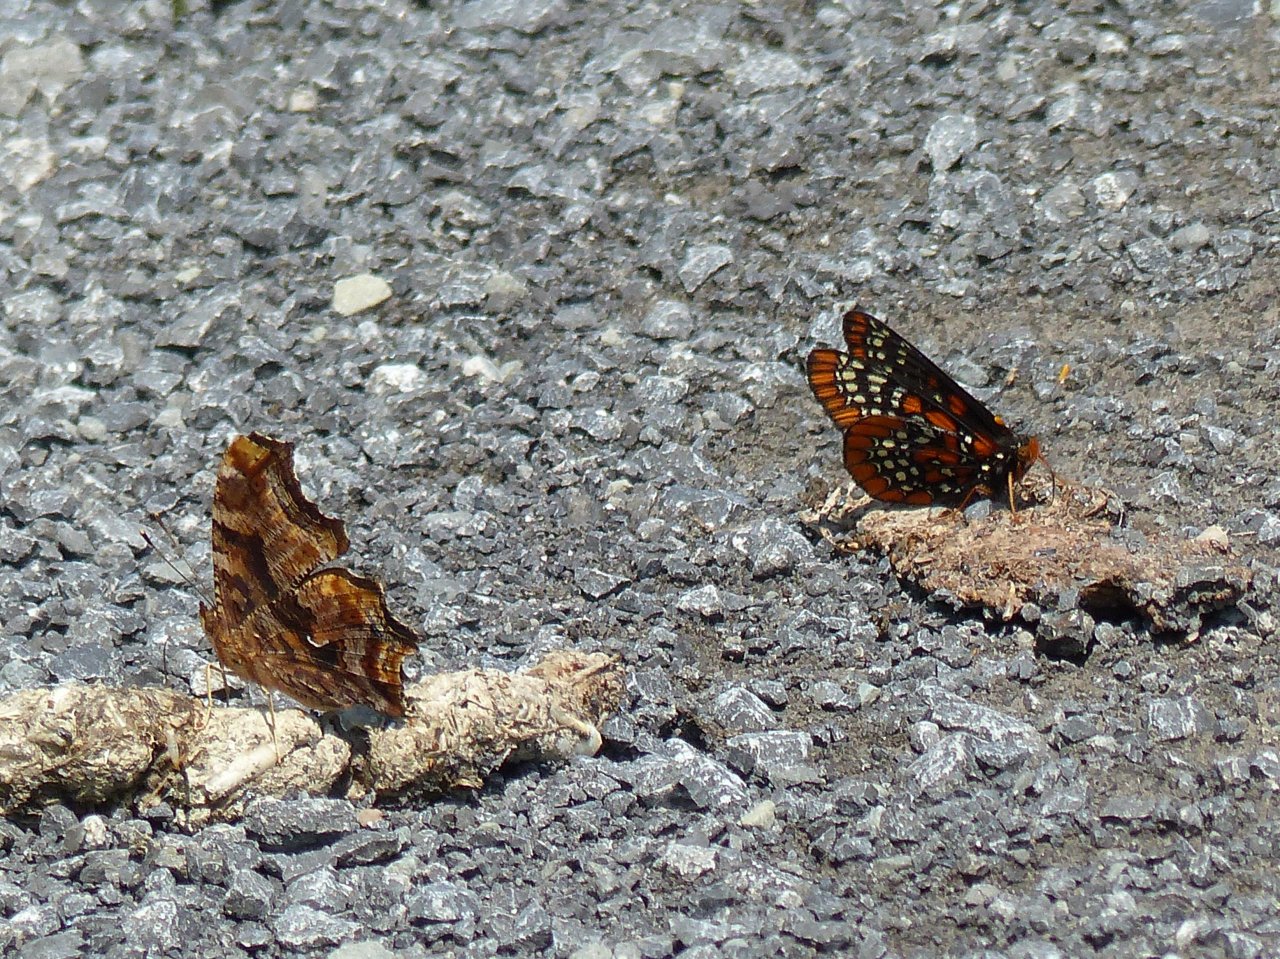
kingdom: Animalia
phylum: Arthropoda
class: Insecta
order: Lepidoptera
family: Nymphalidae
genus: Polygonia
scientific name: Polygonia comma
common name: Eastern Comma
